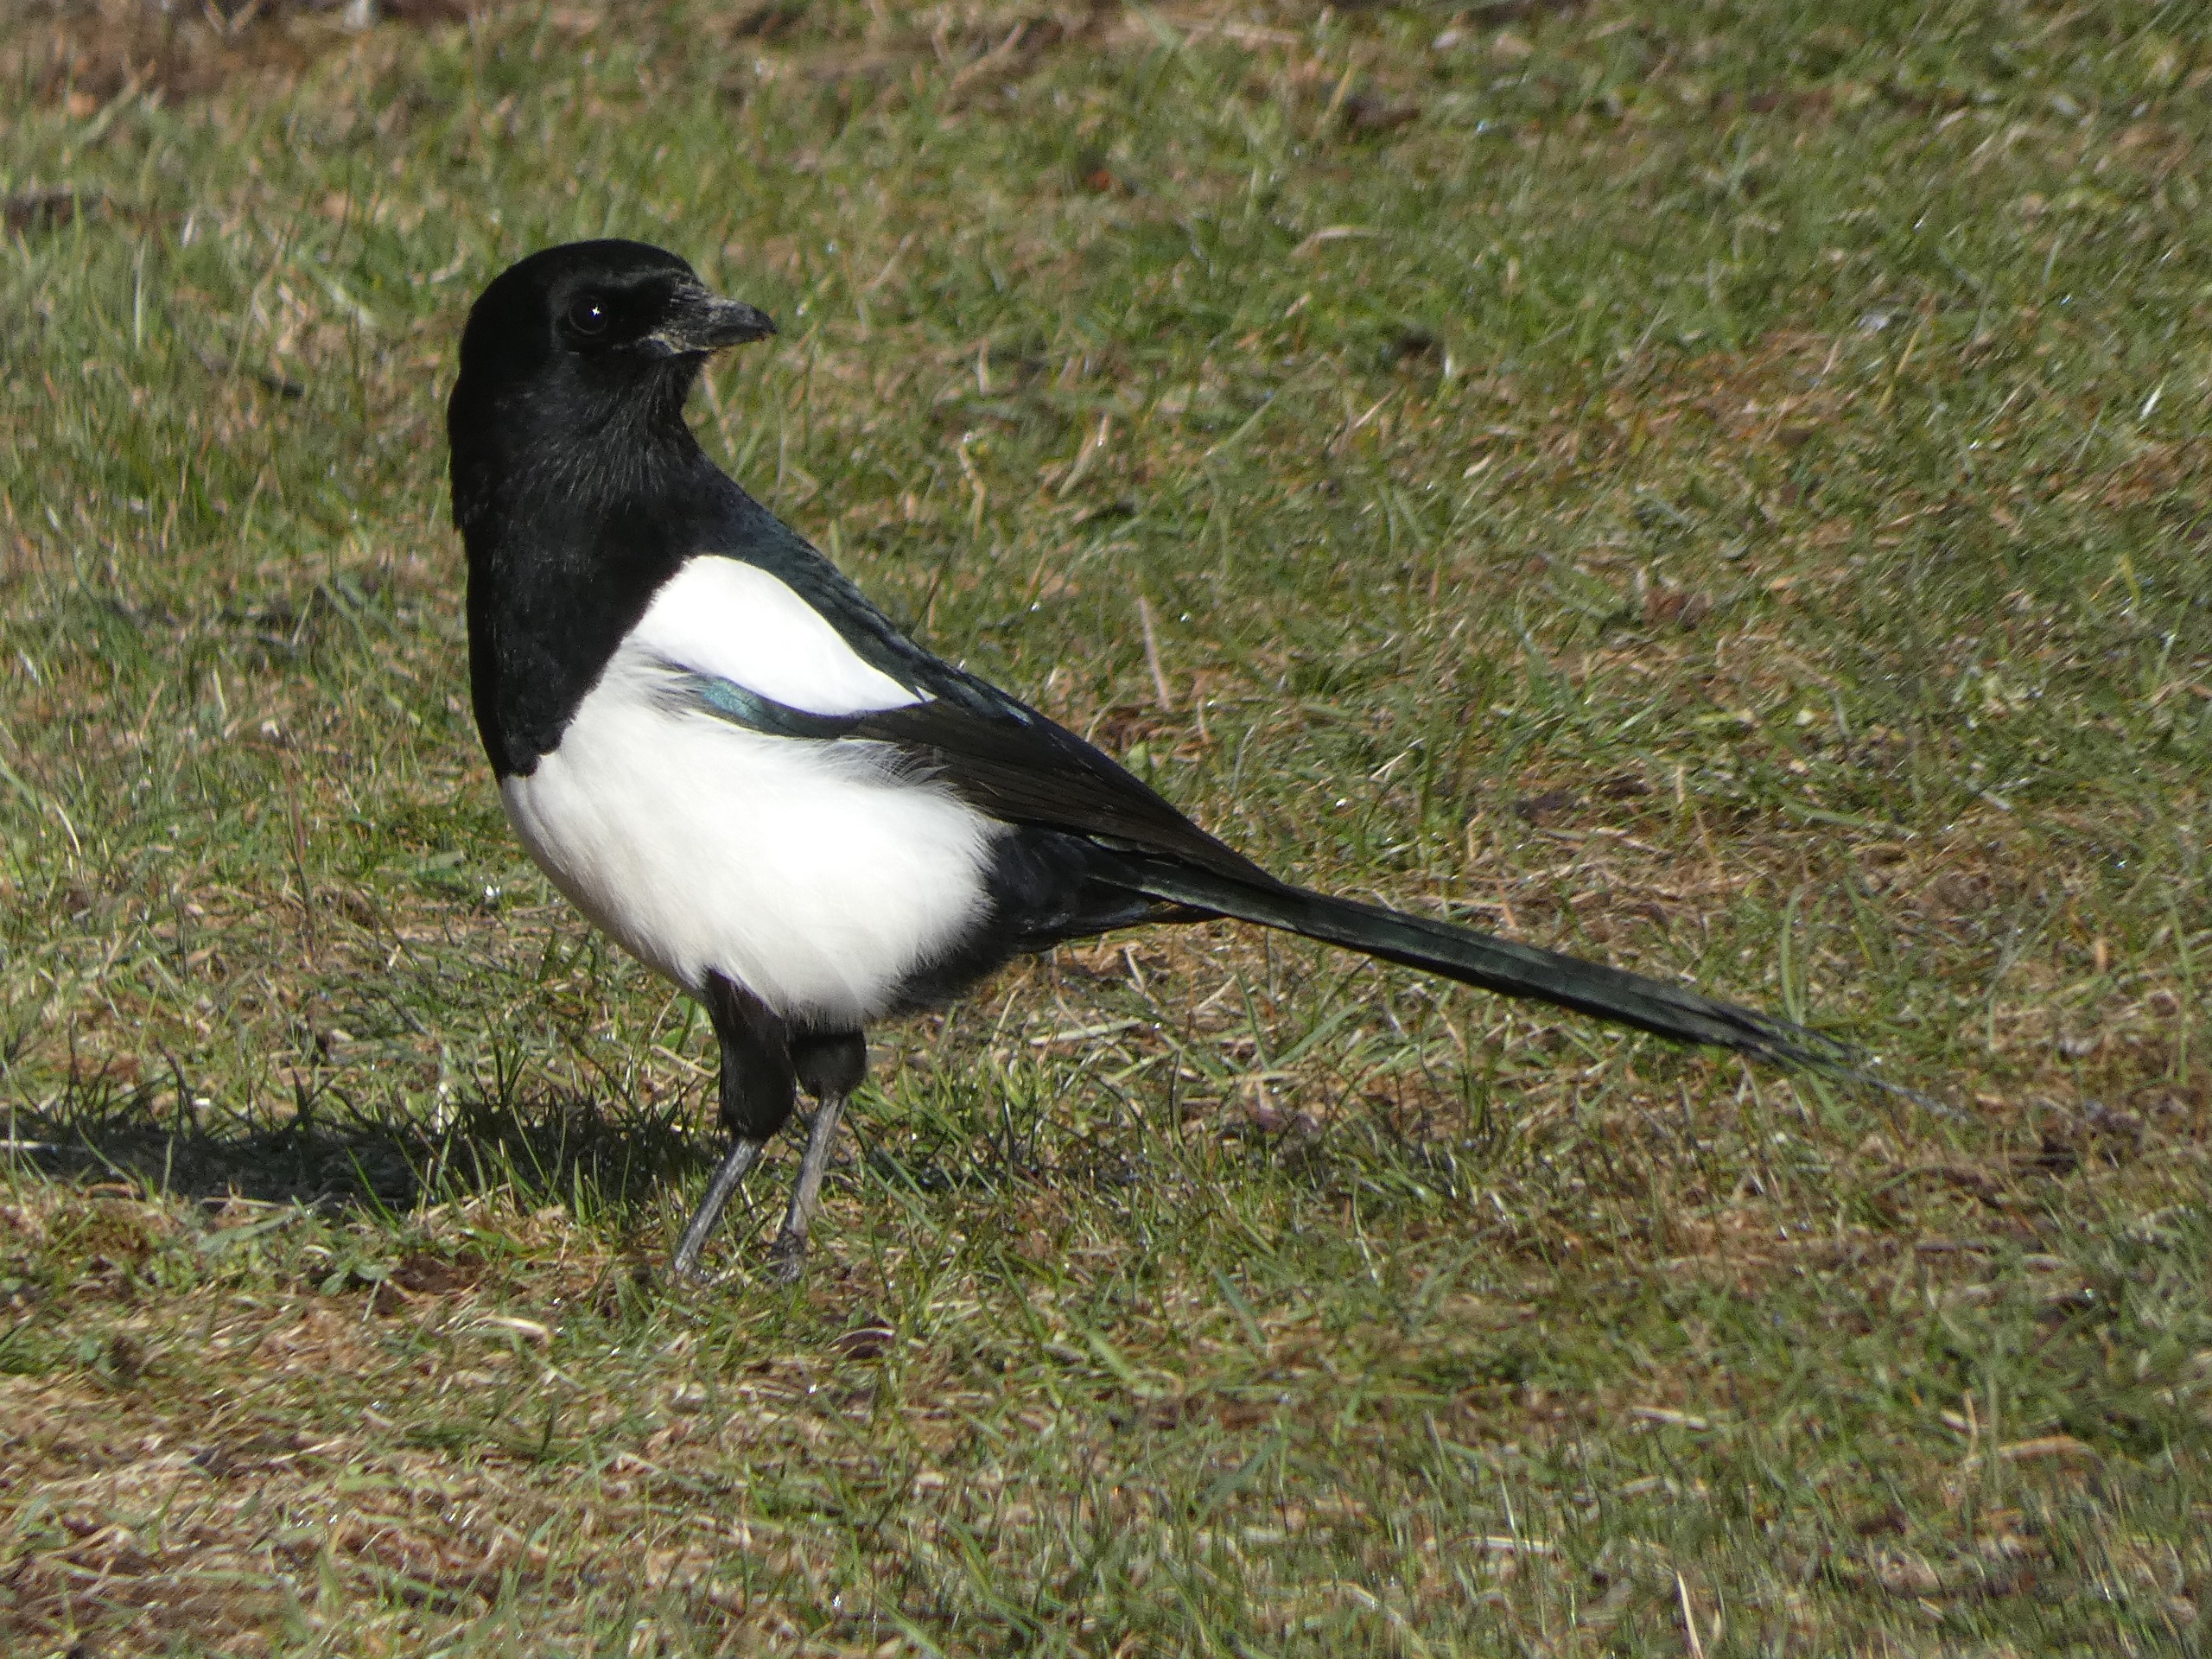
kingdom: Animalia
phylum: Chordata
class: Aves
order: Passeriformes
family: Corvidae
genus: Pica
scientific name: Pica pica
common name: Husskade
